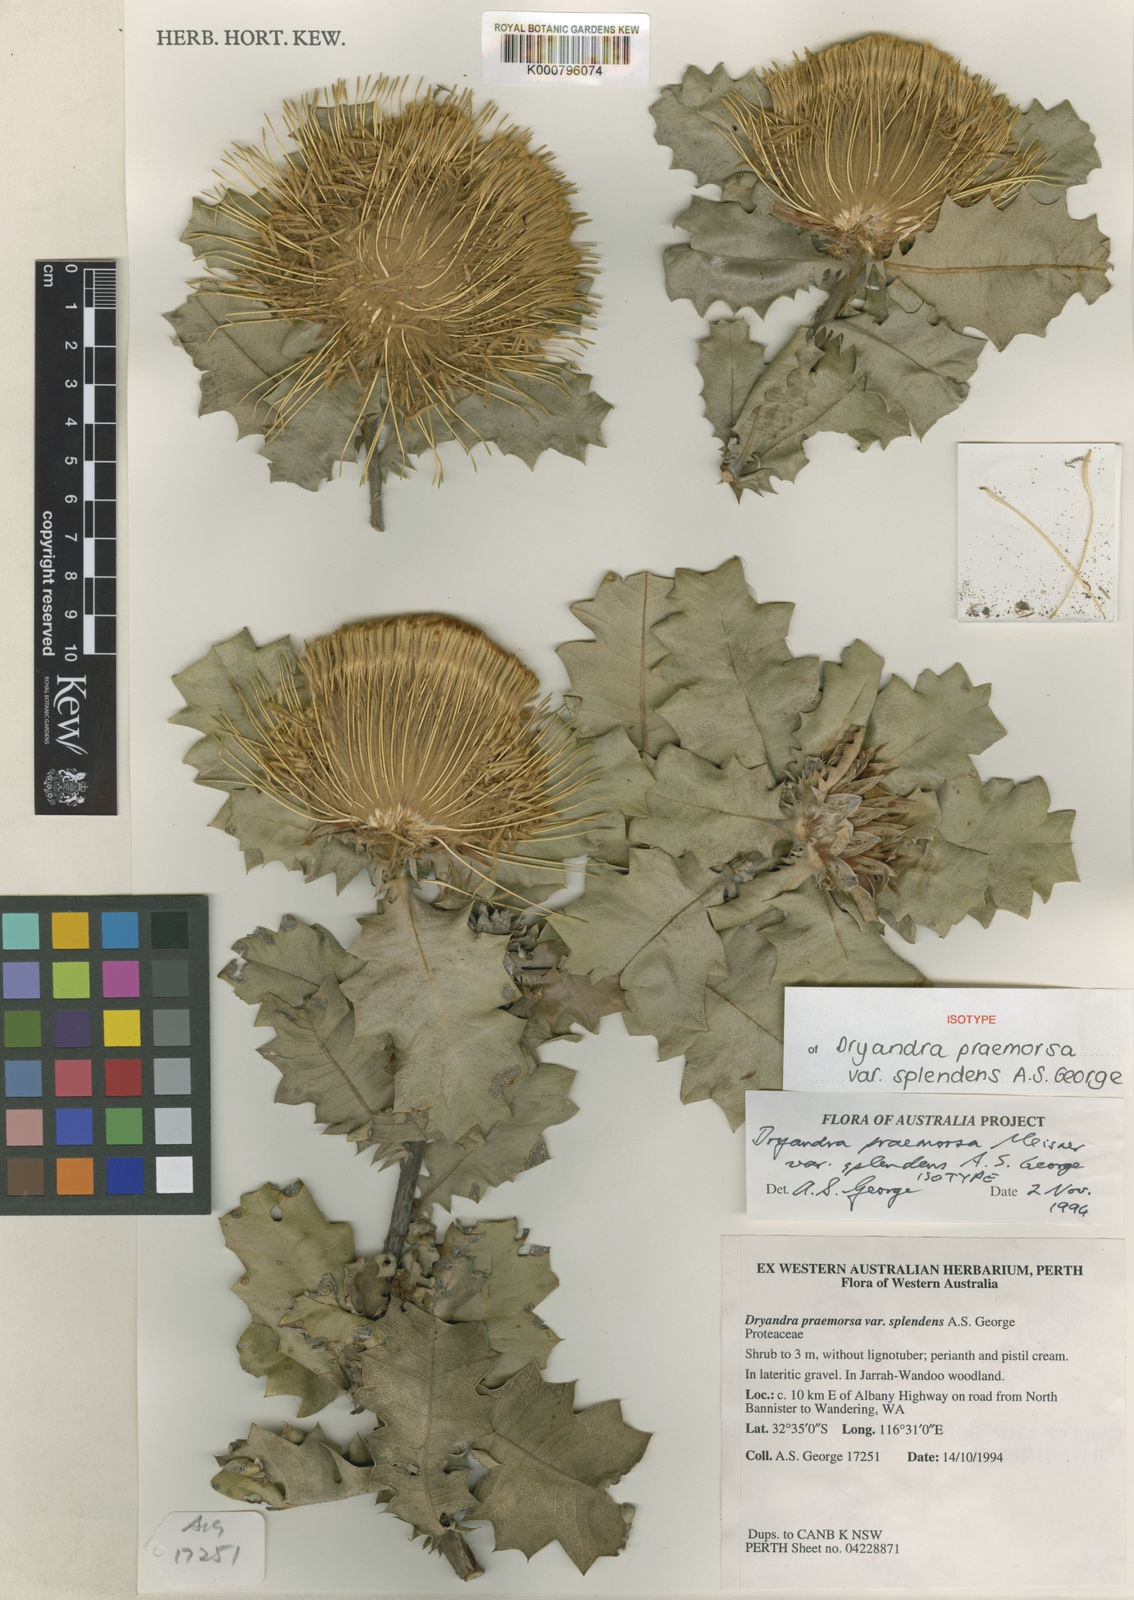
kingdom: Plantae
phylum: Tracheophyta
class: Magnoliopsida
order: Proteales
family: Proteaceae
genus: Banksia
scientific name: Banksia undata
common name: Cut-leaf dryandra
